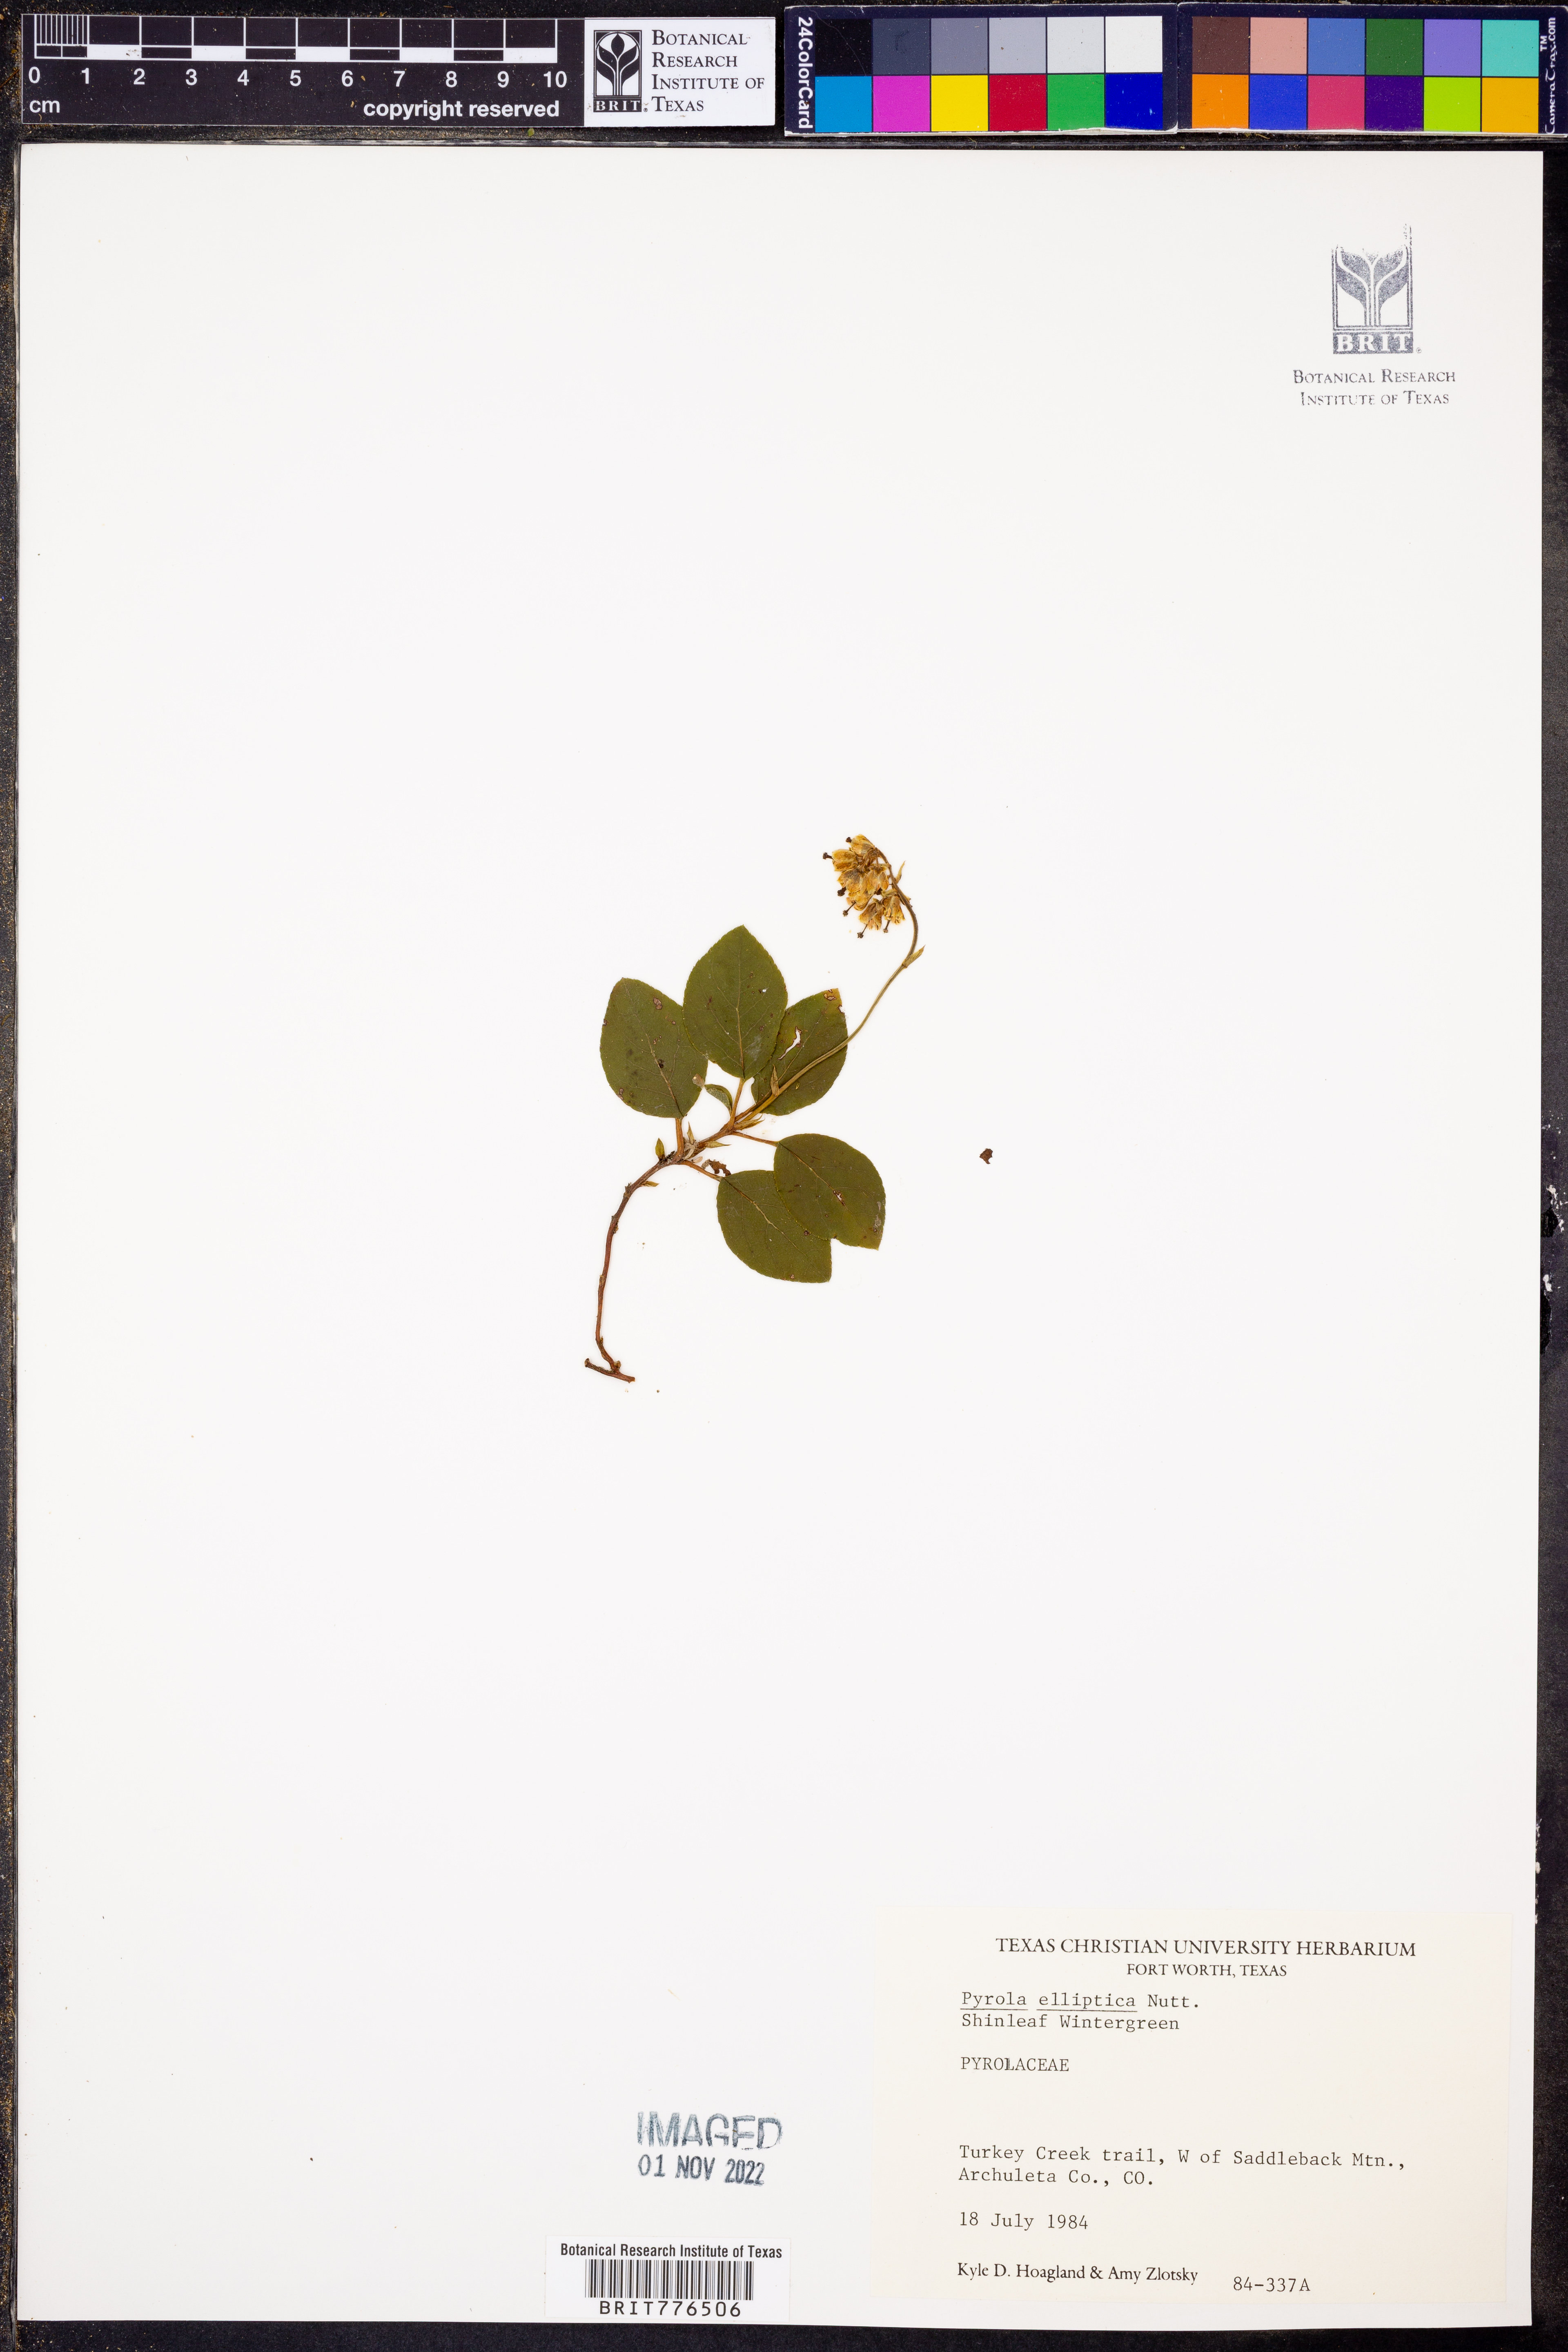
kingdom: Plantae
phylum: Tracheophyta
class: Magnoliopsida
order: Ericales
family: Ericaceae
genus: Pyrola
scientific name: Pyrola elliptica
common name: Shinleaf
